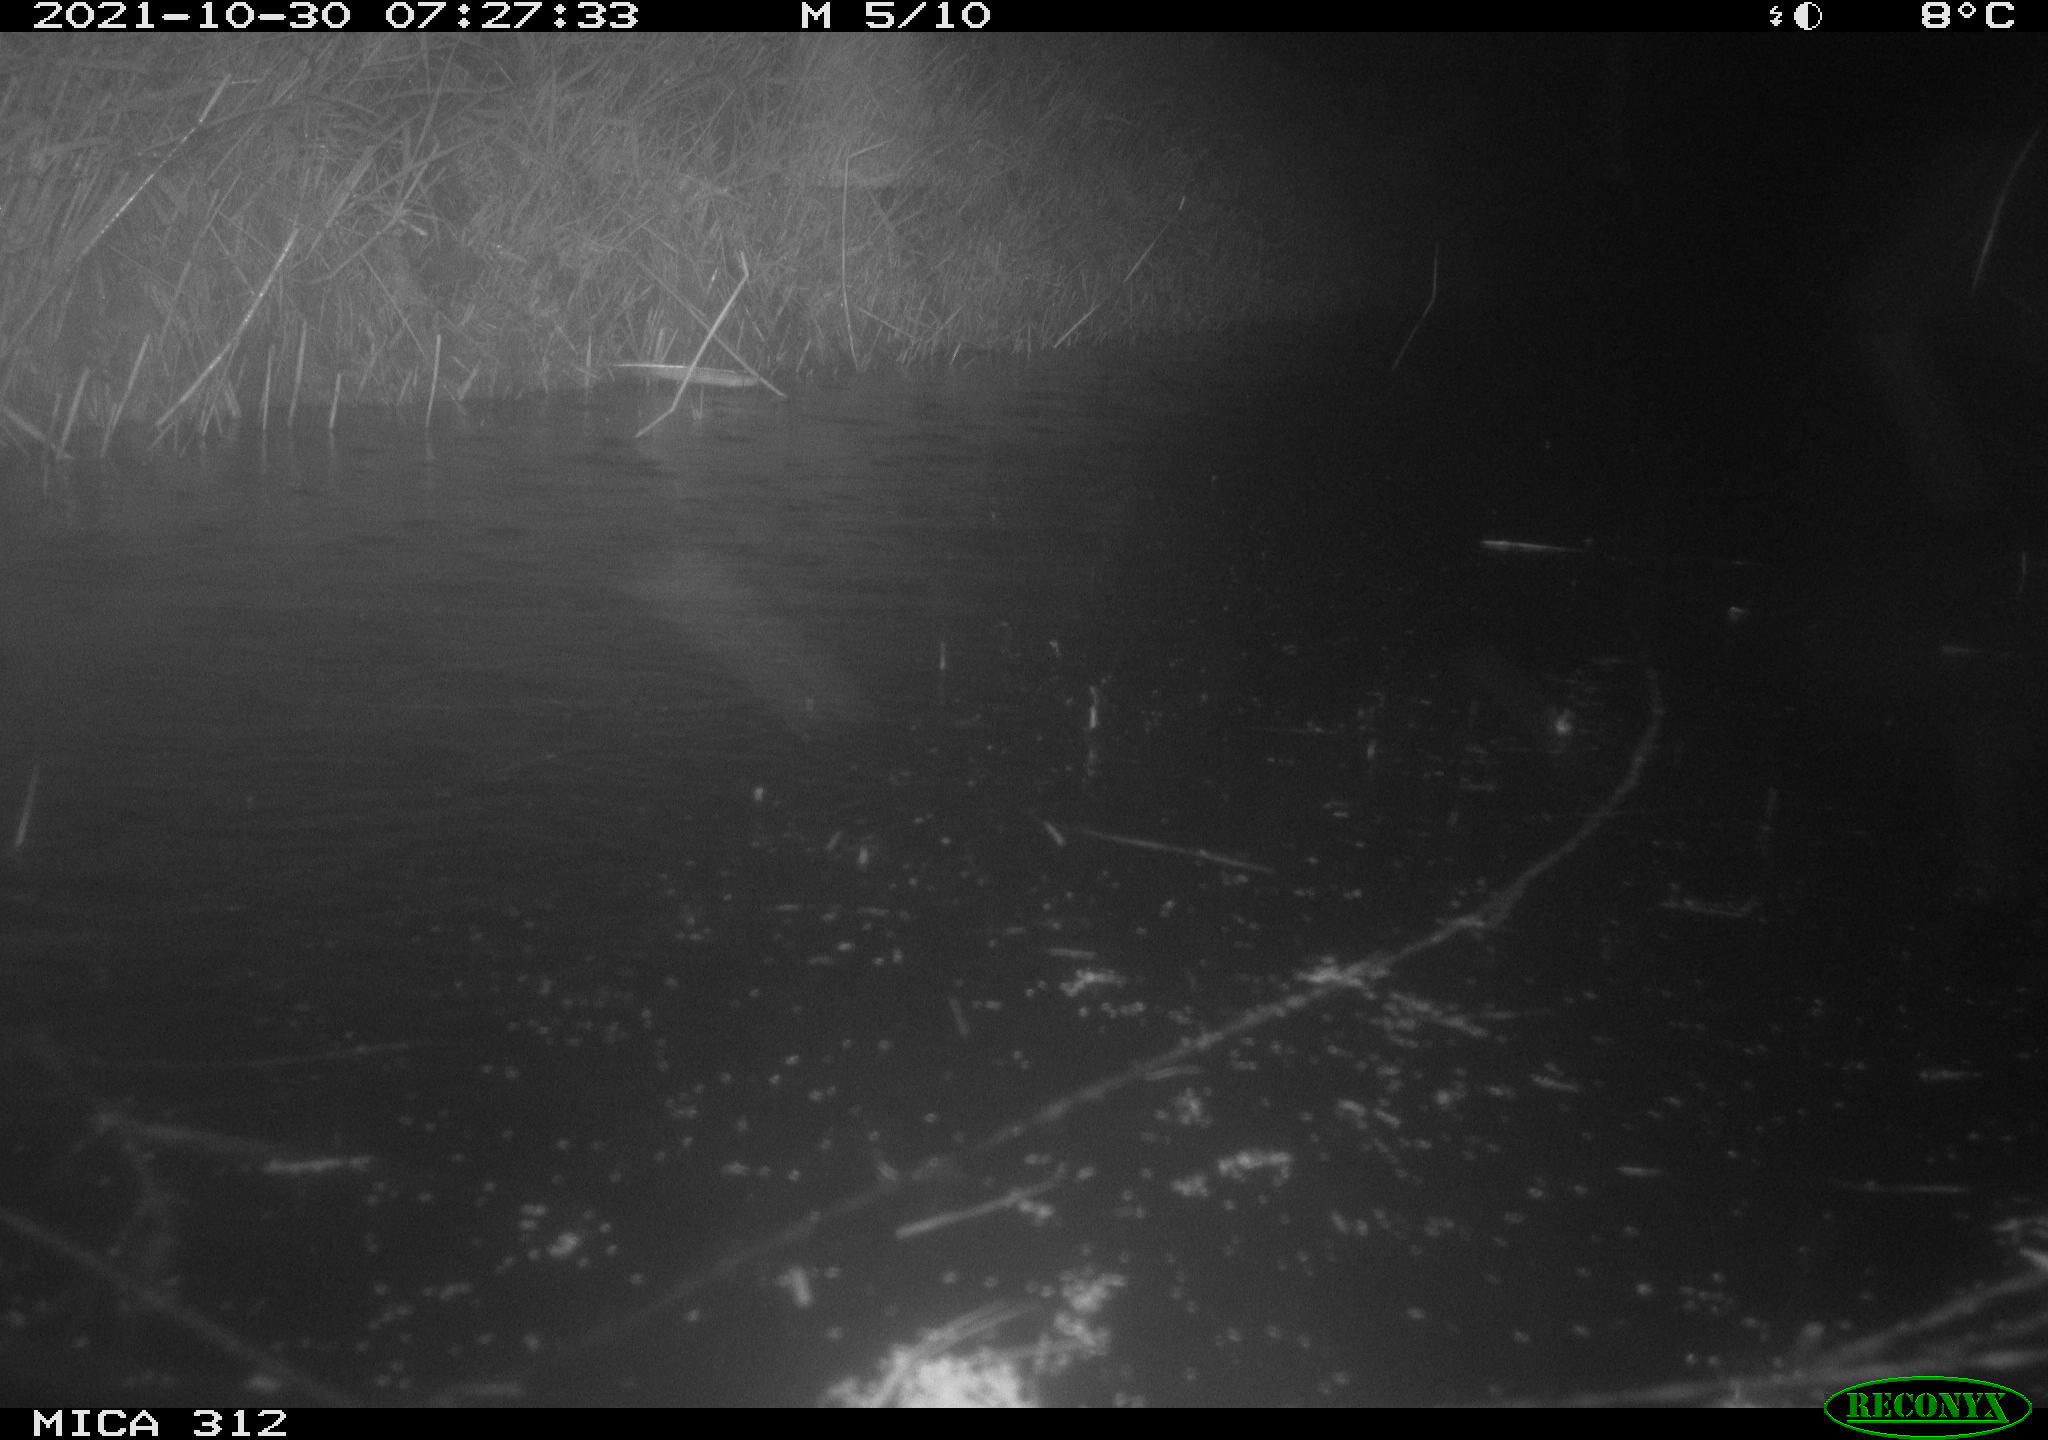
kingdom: Animalia
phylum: Chordata
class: Mammalia
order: Rodentia
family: Cricetidae
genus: Ondatra
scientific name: Ondatra zibethicus
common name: Muskrat
